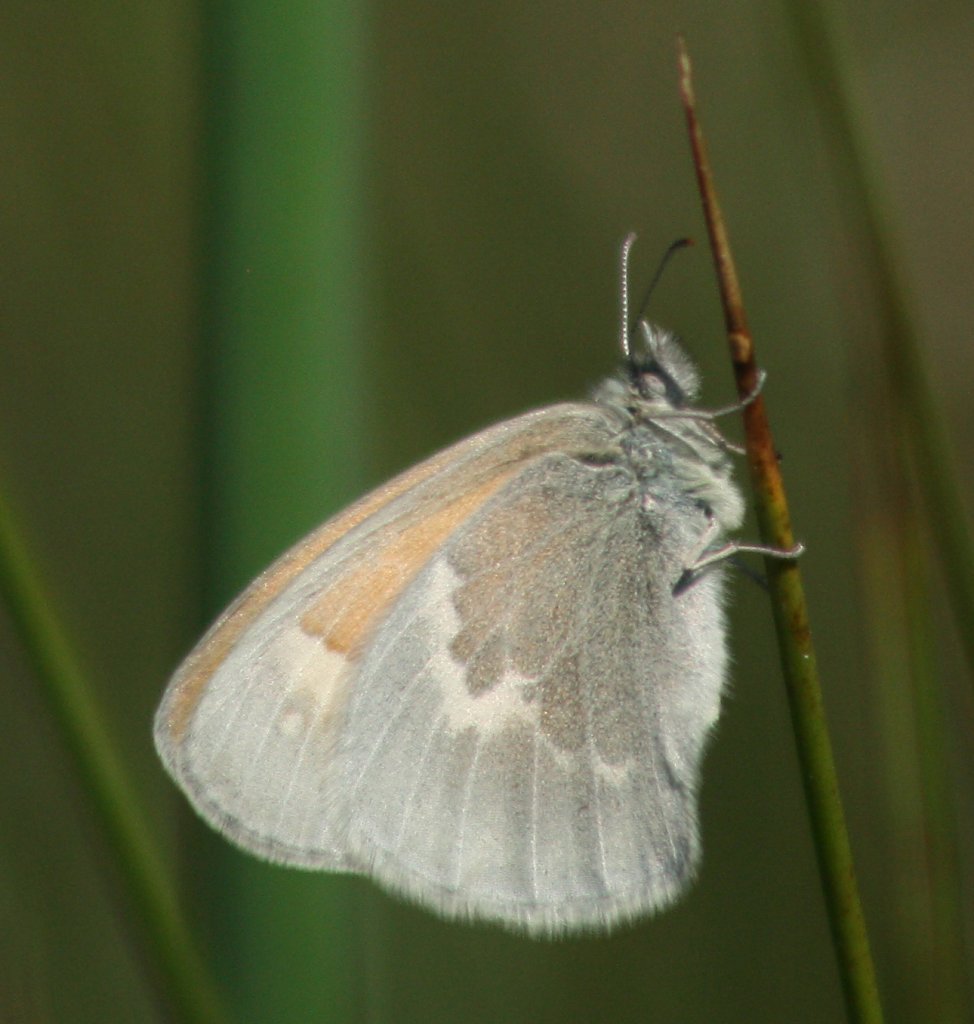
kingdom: Animalia
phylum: Arthropoda
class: Insecta
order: Lepidoptera
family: Nymphalidae
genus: Coenonympha
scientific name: Coenonympha tullia
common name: Large Heath
